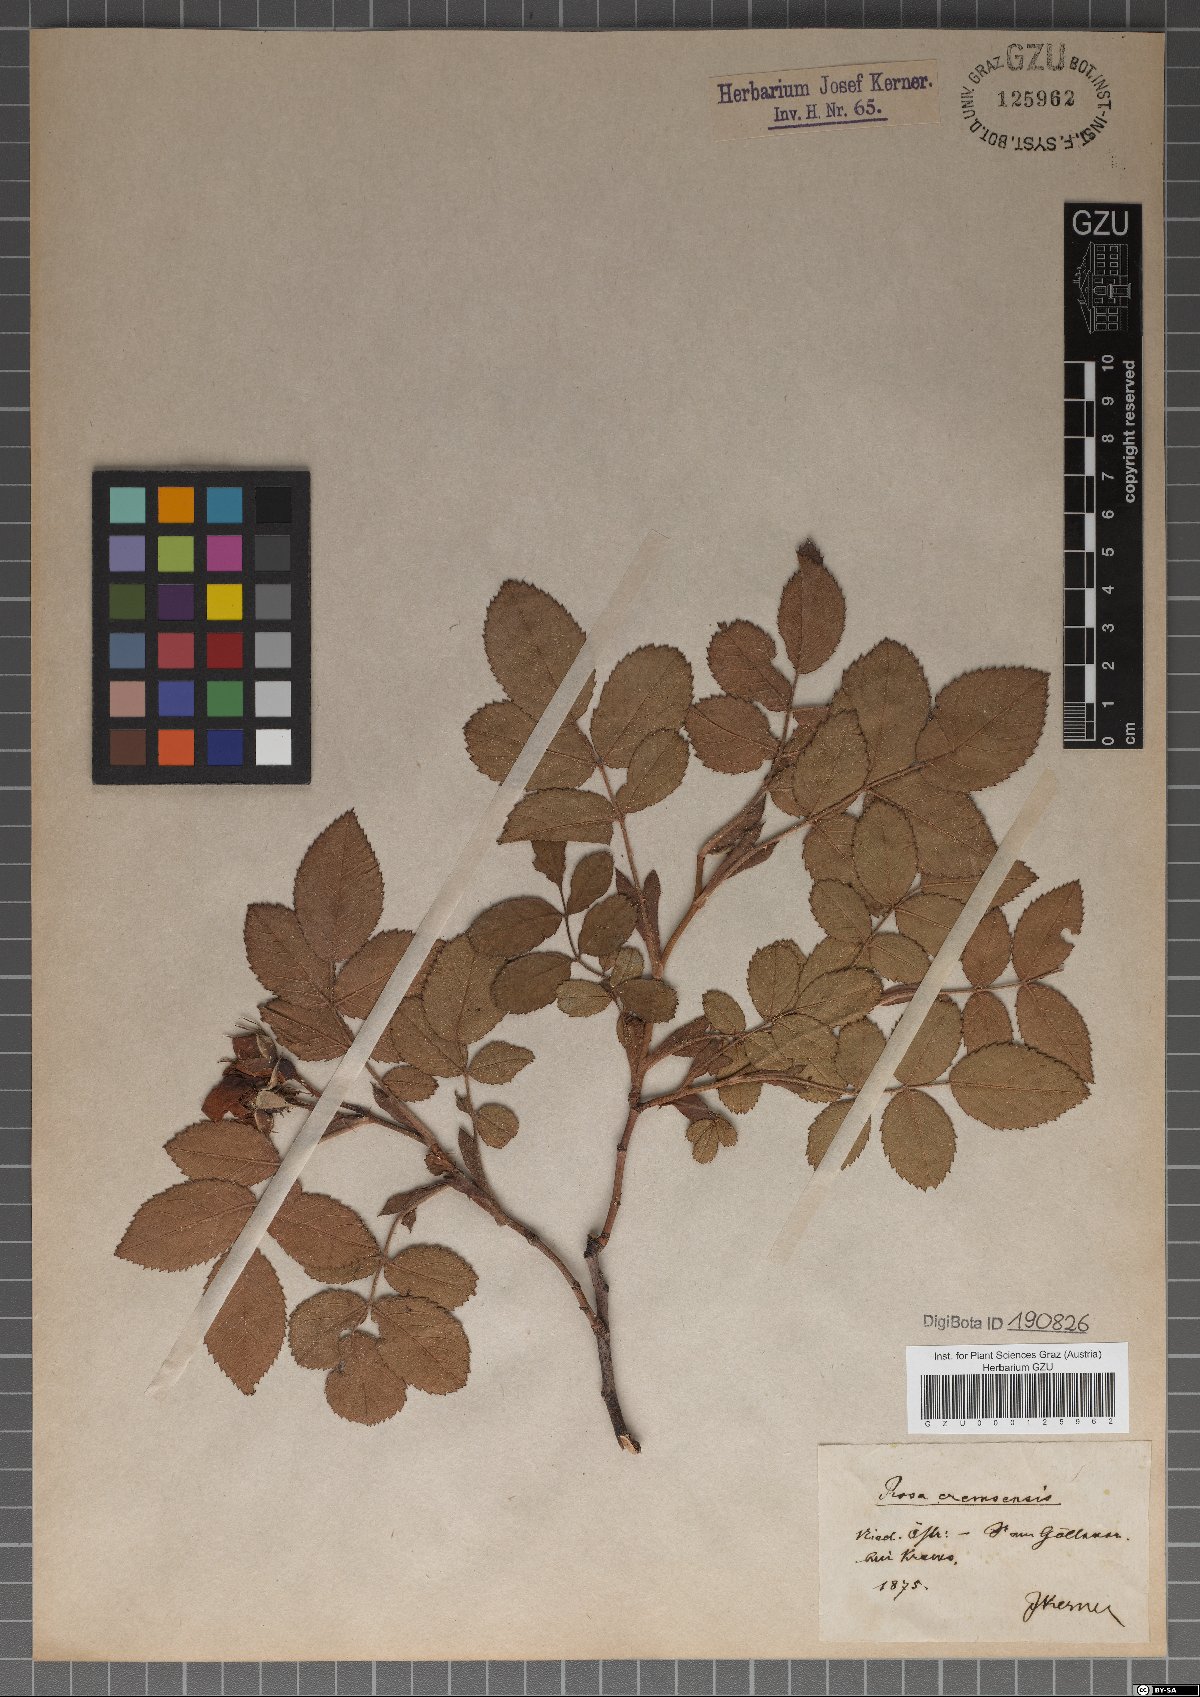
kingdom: Plantae
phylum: Tracheophyta
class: Magnoliopsida
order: Rosales
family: Rosaceae
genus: Rosa
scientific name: Rosa mollis
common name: Rose
